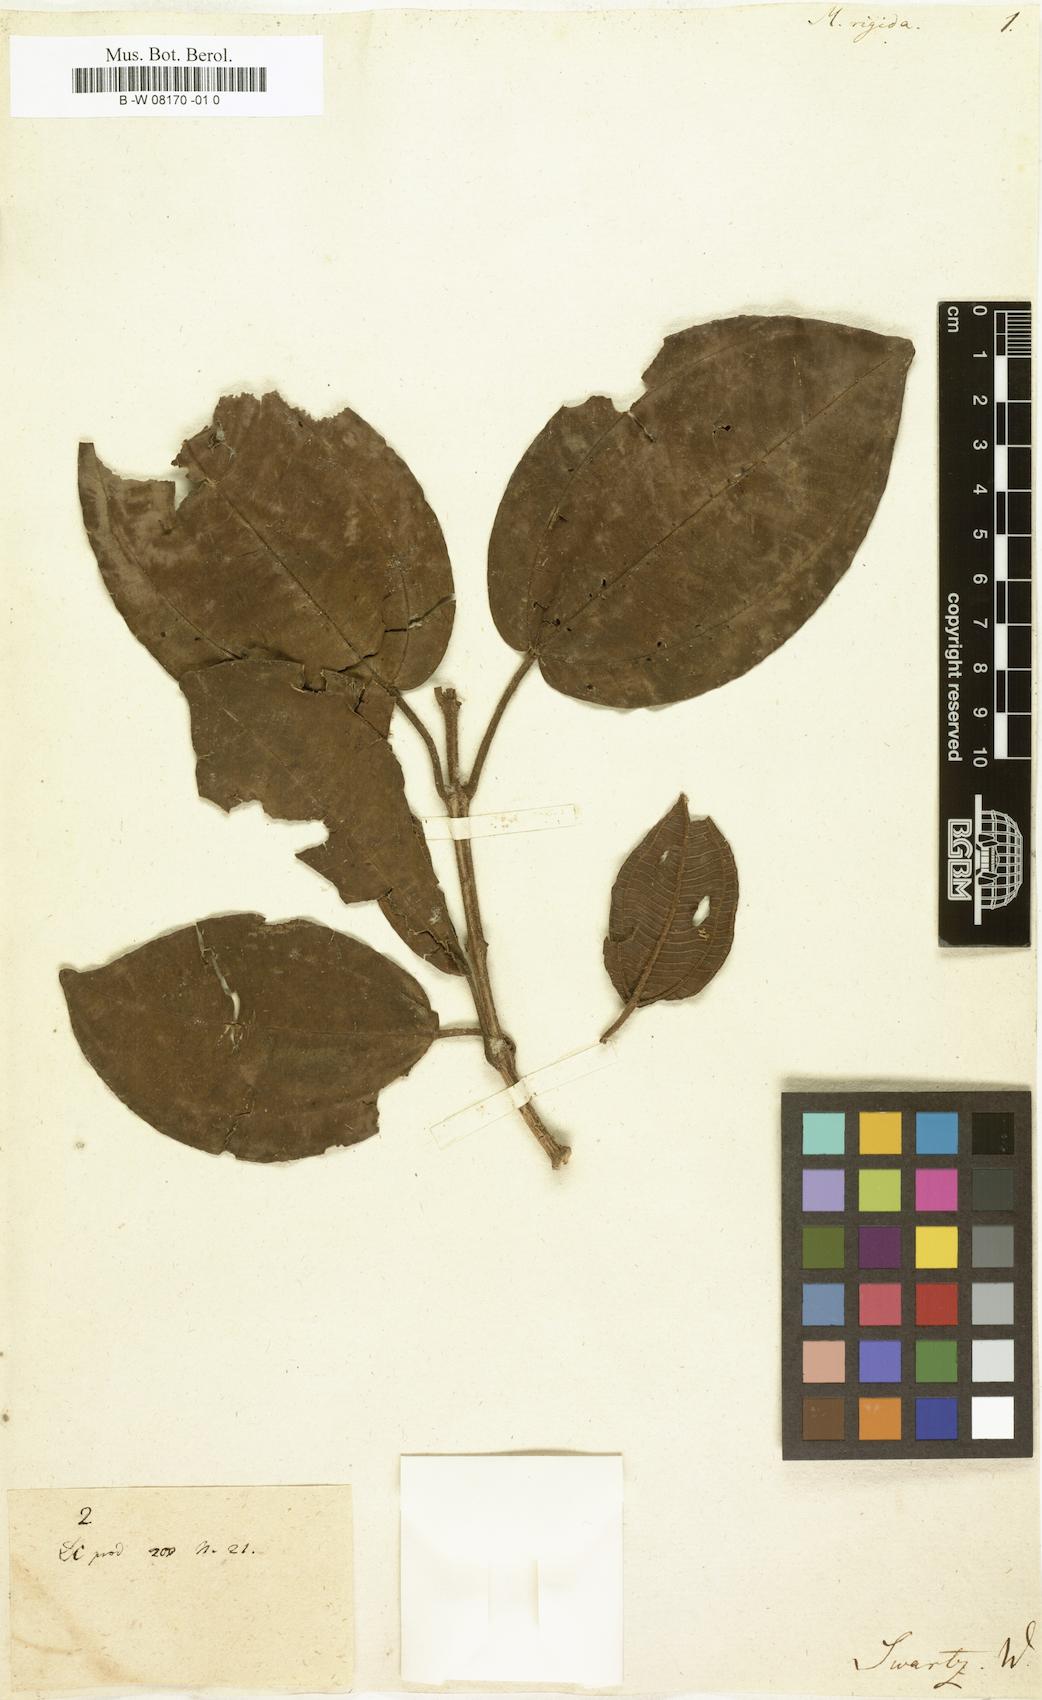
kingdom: Plantae
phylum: Tracheophyta
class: Magnoliopsida
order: Myrtales
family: Melastomataceae
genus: Miconia
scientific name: Miconia rigida
